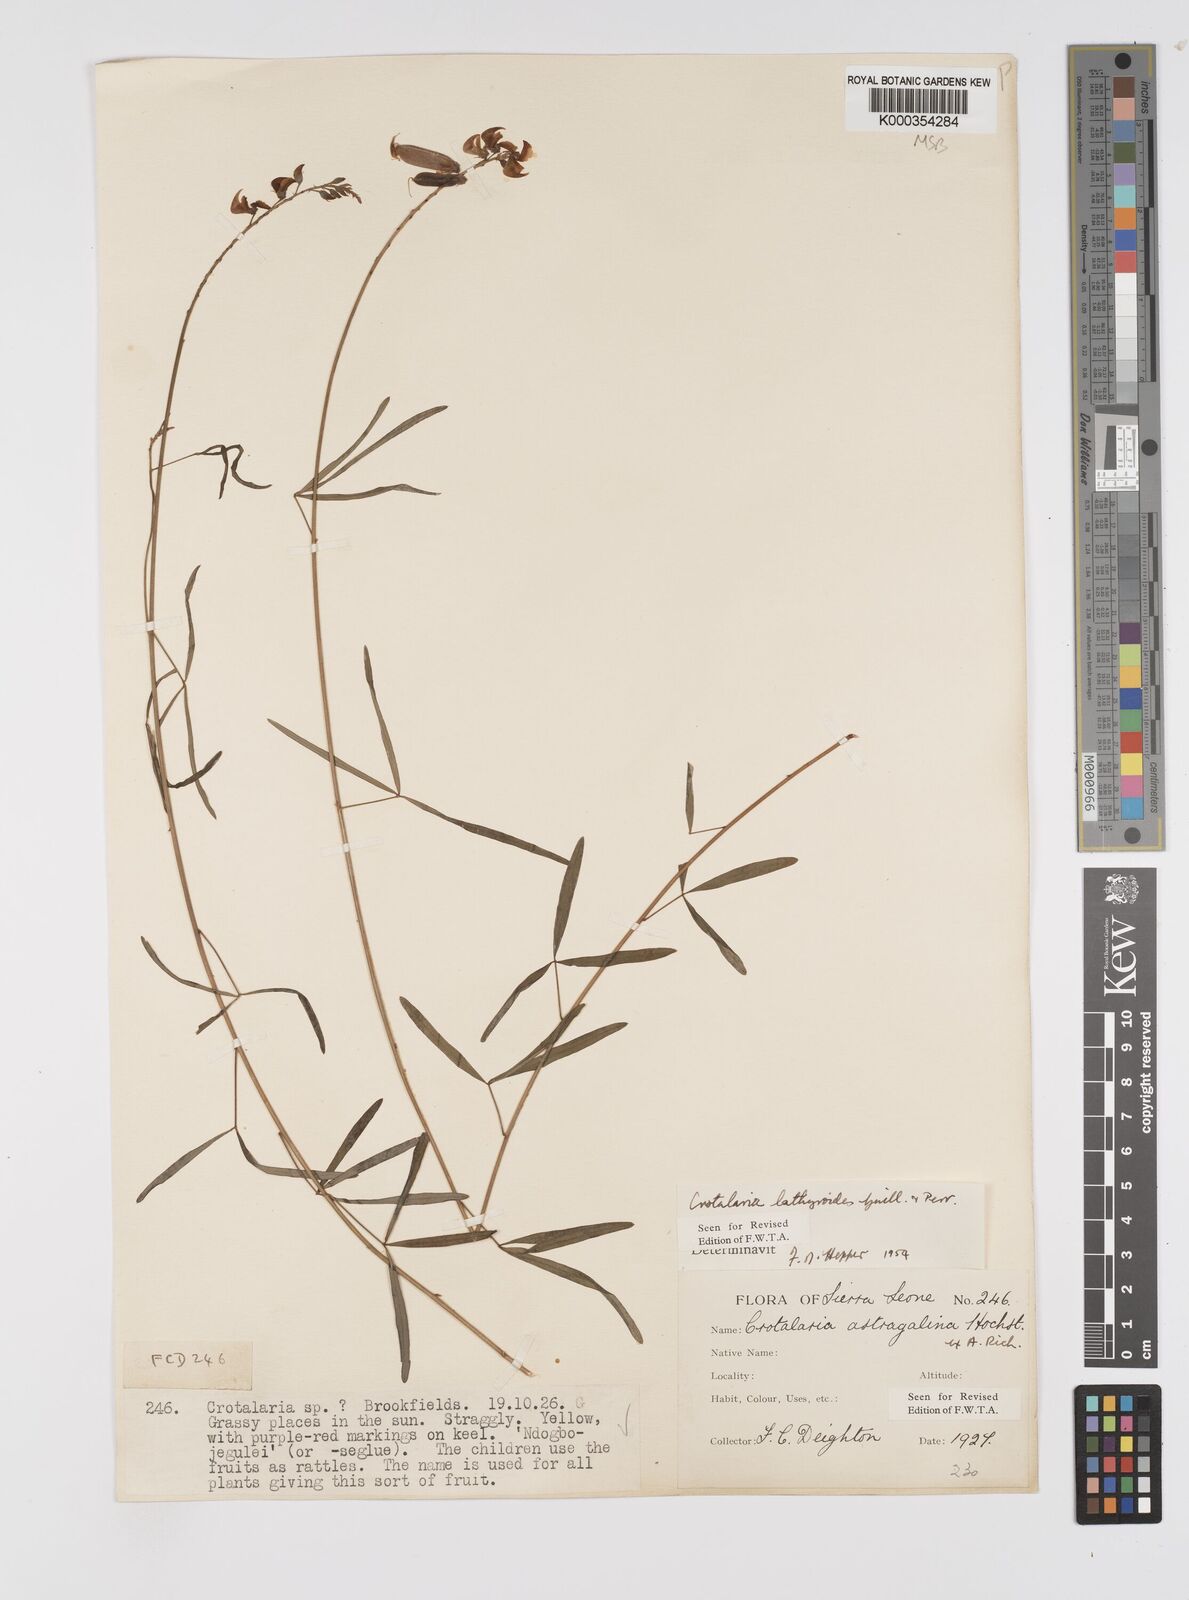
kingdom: Plantae
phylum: Tracheophyta
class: Magnoliopsida
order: Fabales
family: Fabaceae
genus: Crotalaria
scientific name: Crotalaria lathyroides
